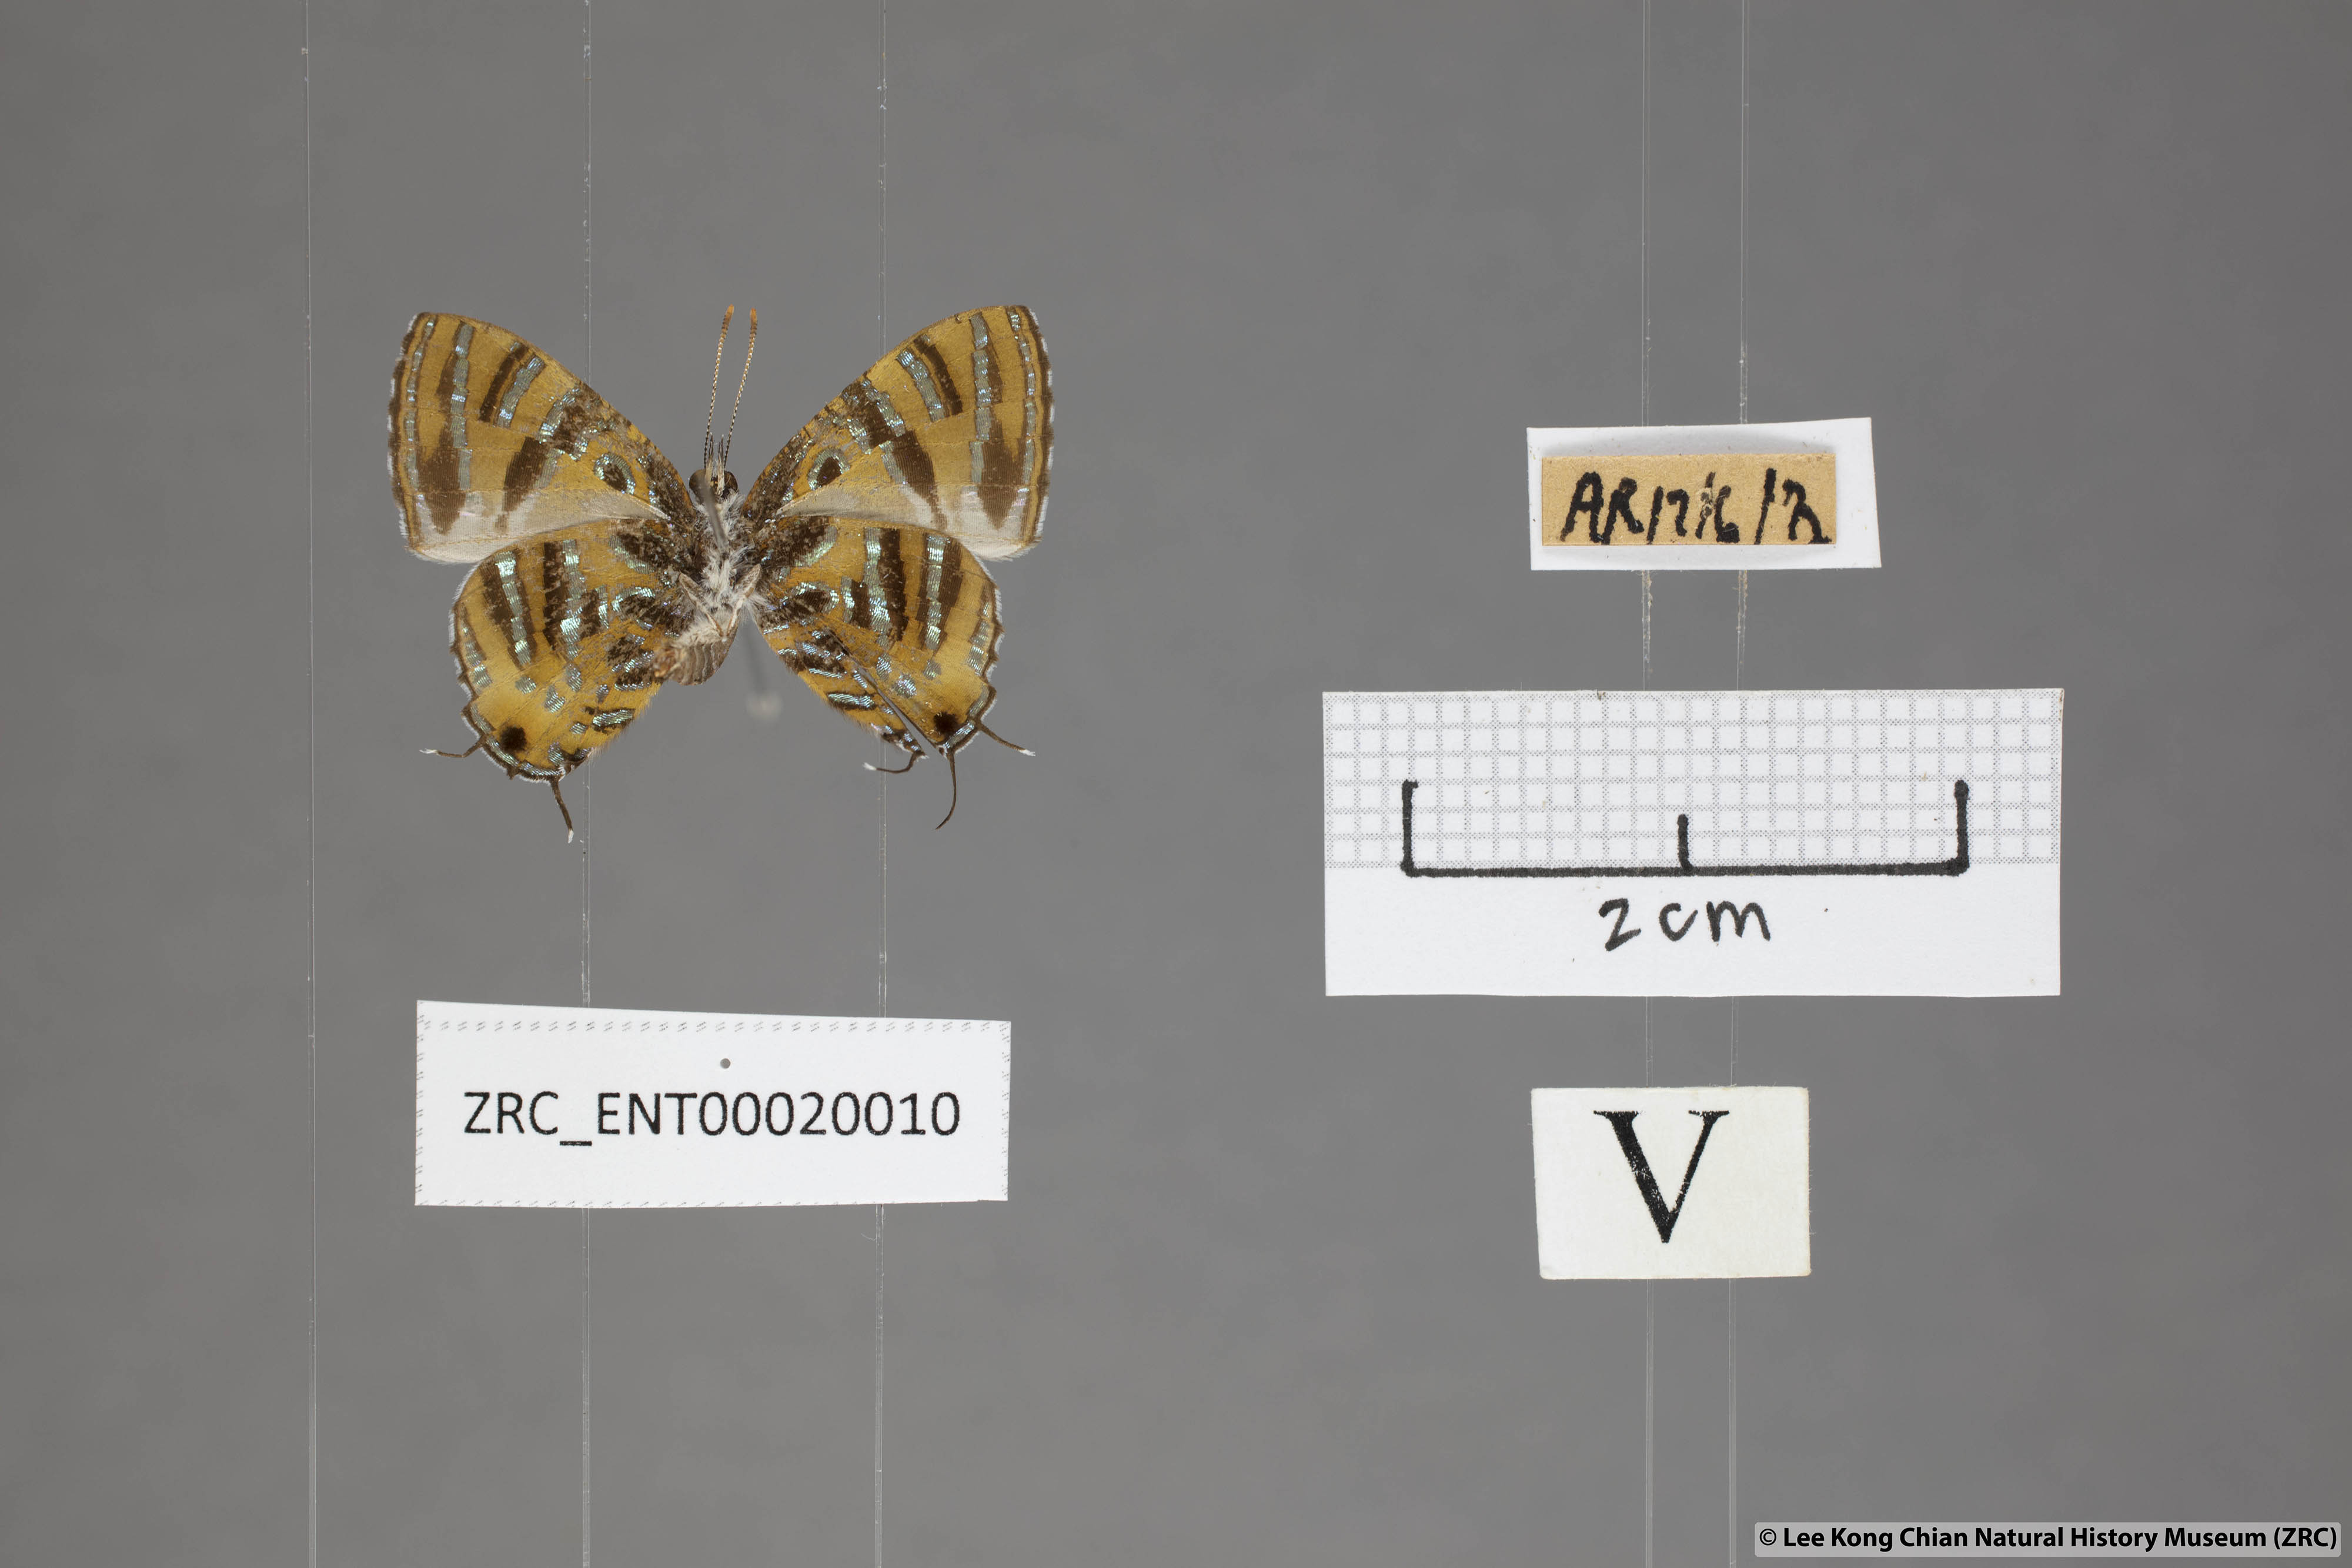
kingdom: Animalia
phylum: Arthropoda
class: Insecta
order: Lepidoptera
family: Lycaenidae
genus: Catapaecilma
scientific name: Catapaecilma subochrea
